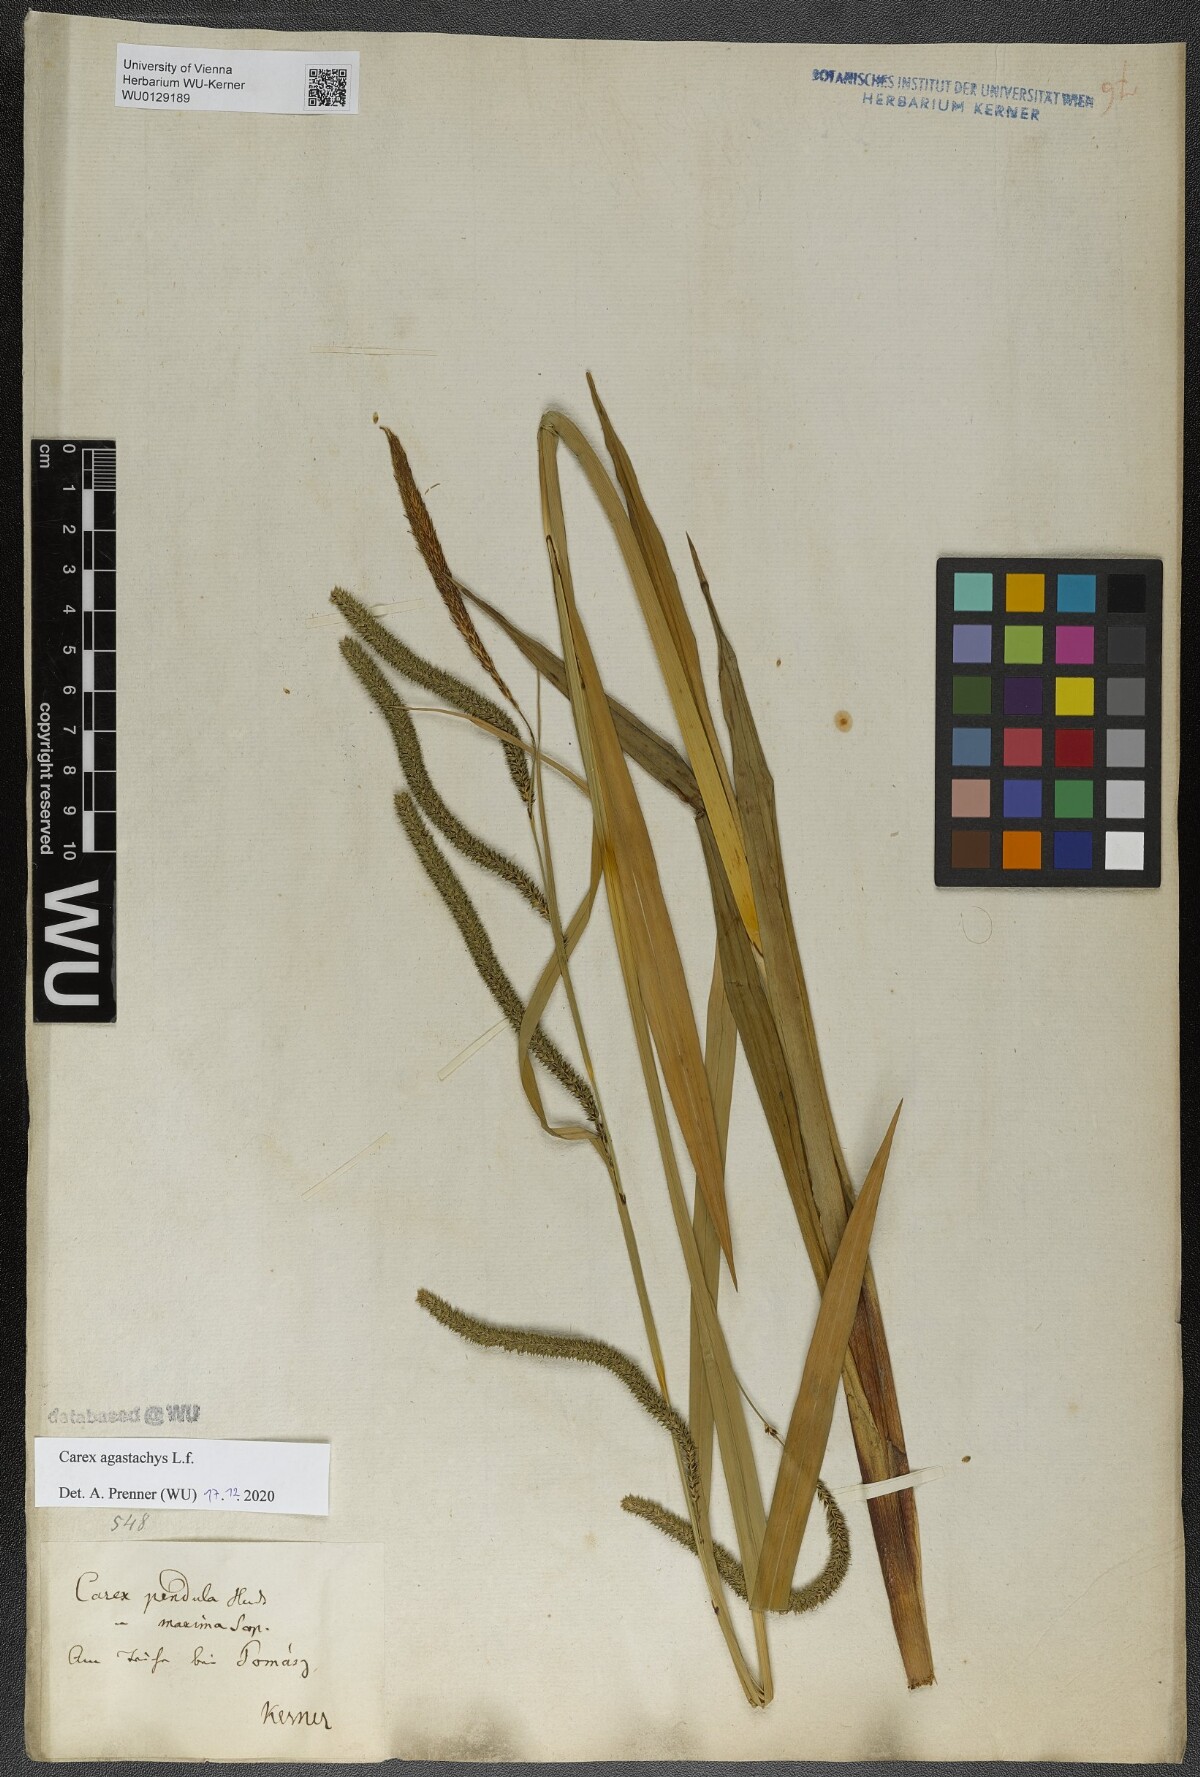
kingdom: Plantae
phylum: Tracheophyta
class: Liliopsida
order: Poales
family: Cyperaceae
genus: Carex
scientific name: Carex agastachys
